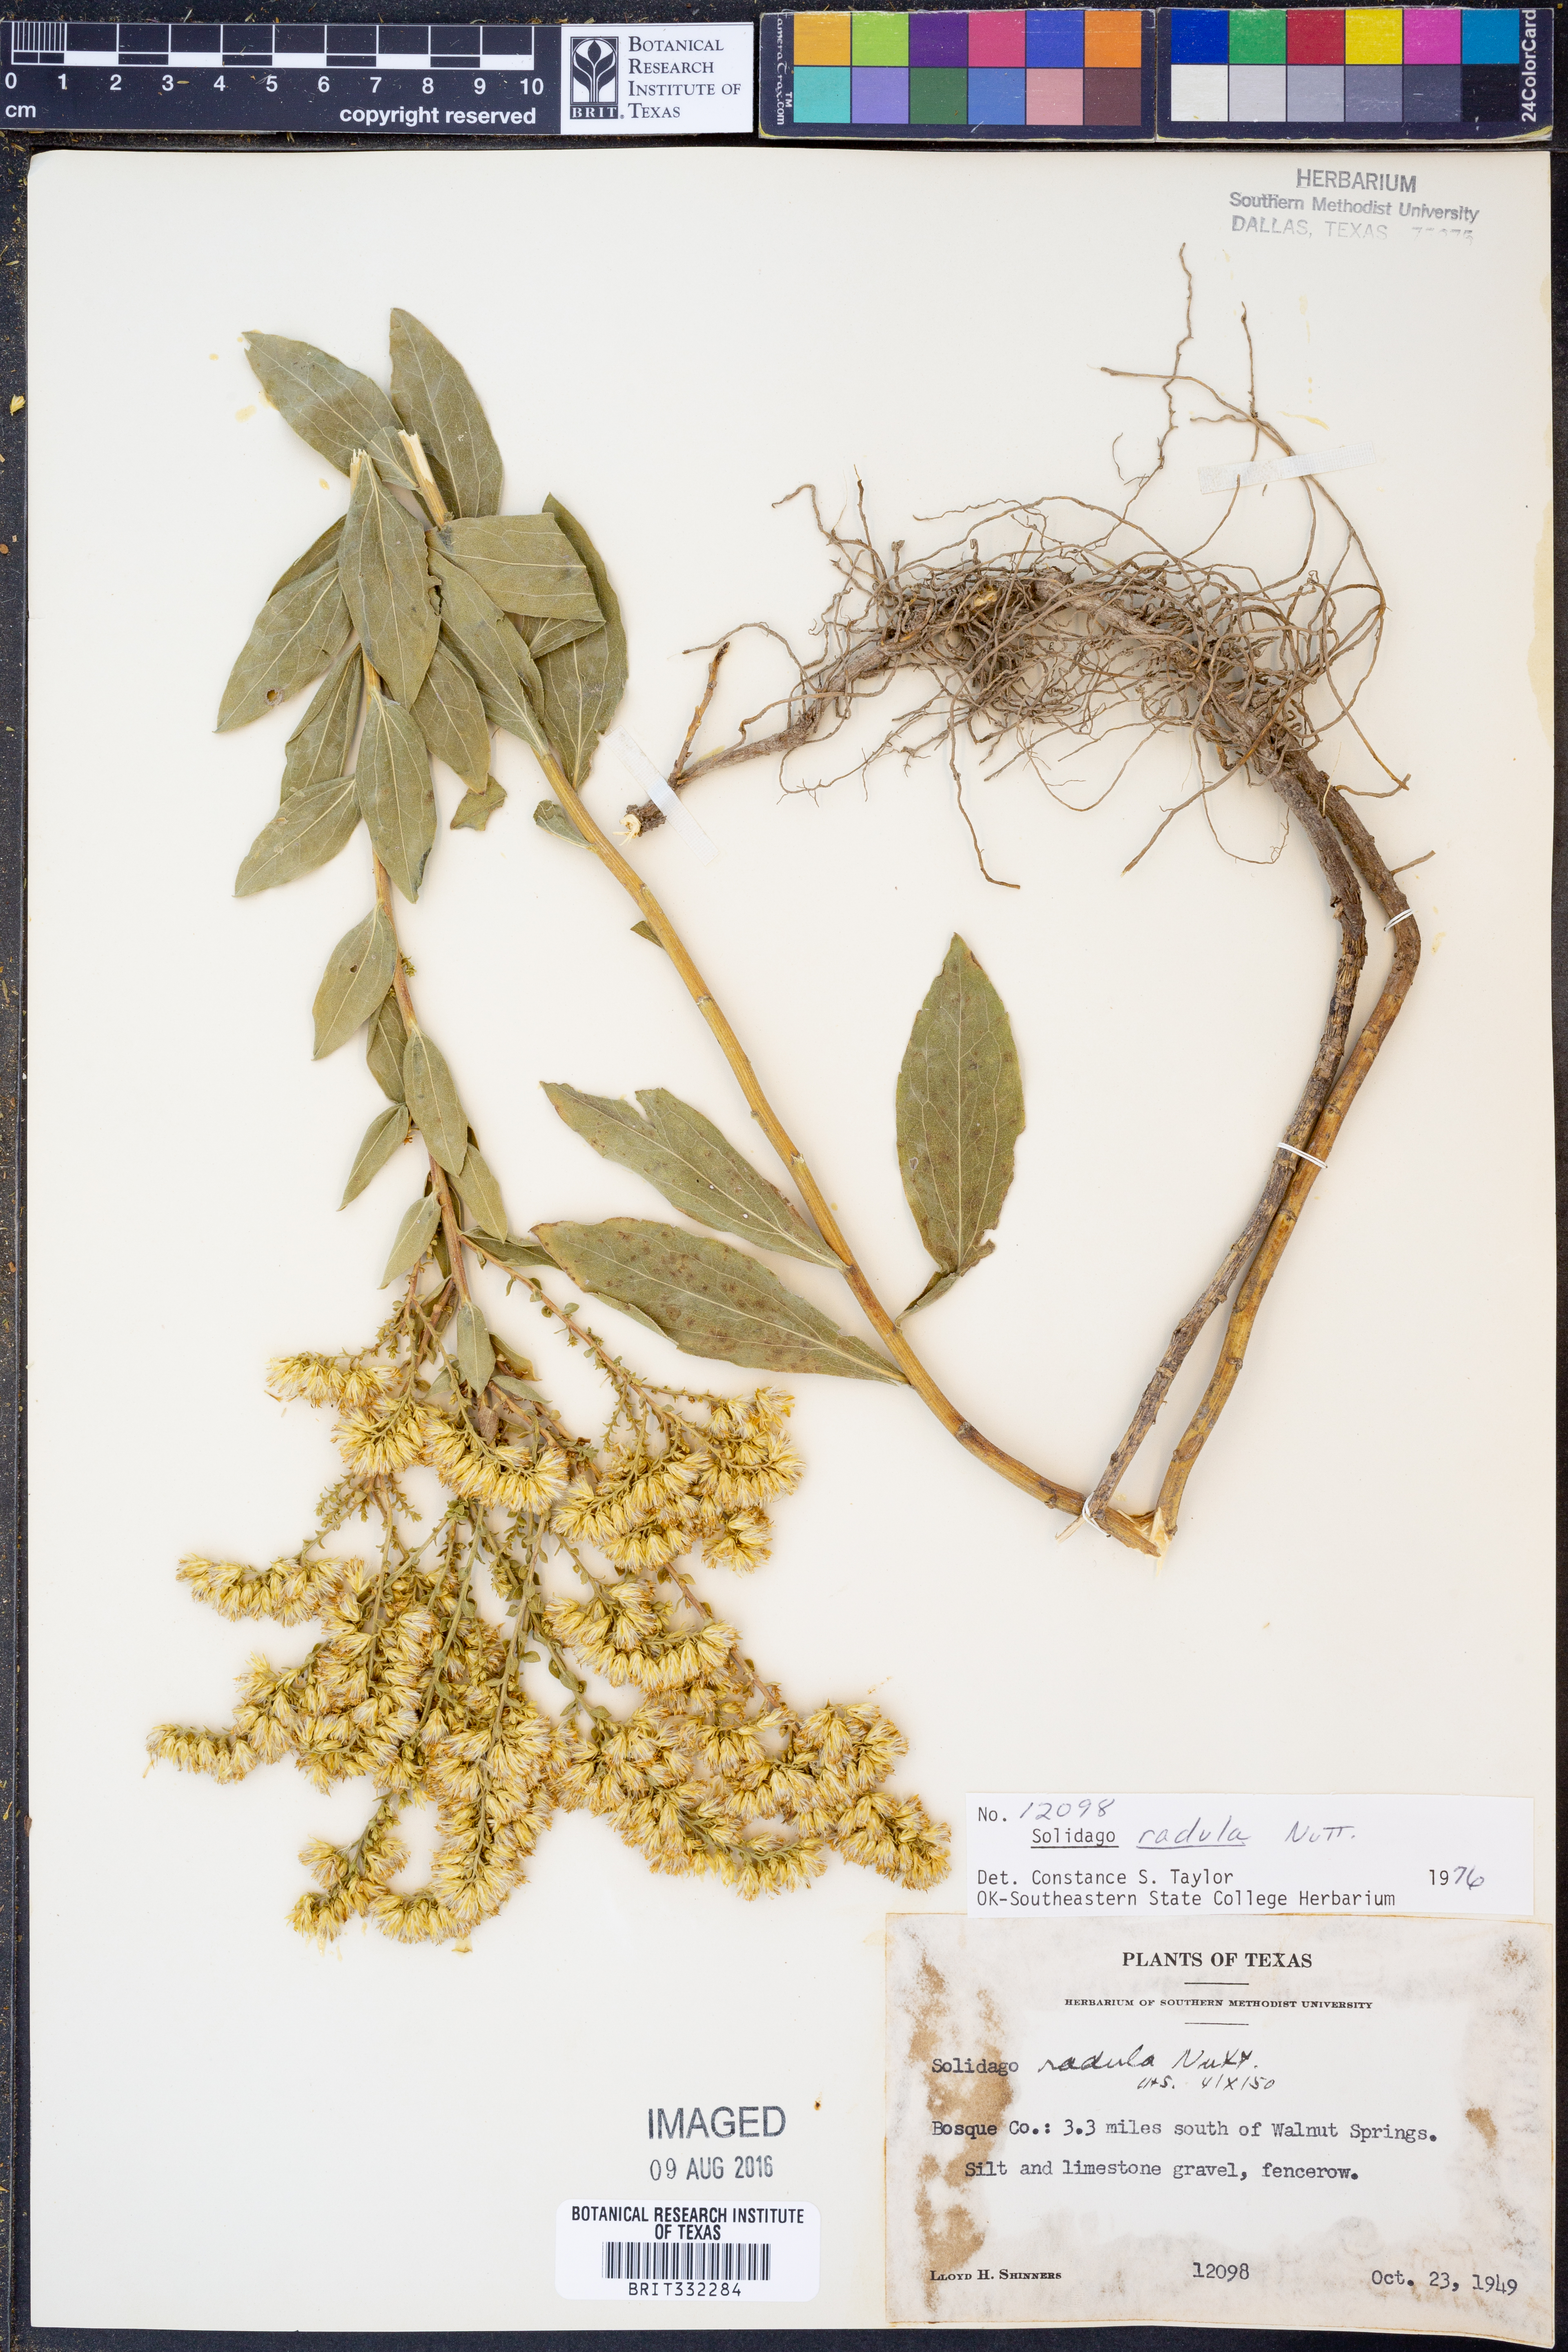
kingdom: Plantae
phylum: Tracheophyta
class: Magnoliopsida
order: Asterales
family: Asteraceae
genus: Solidago
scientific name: Solidago radula
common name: Western rough goldenrod
